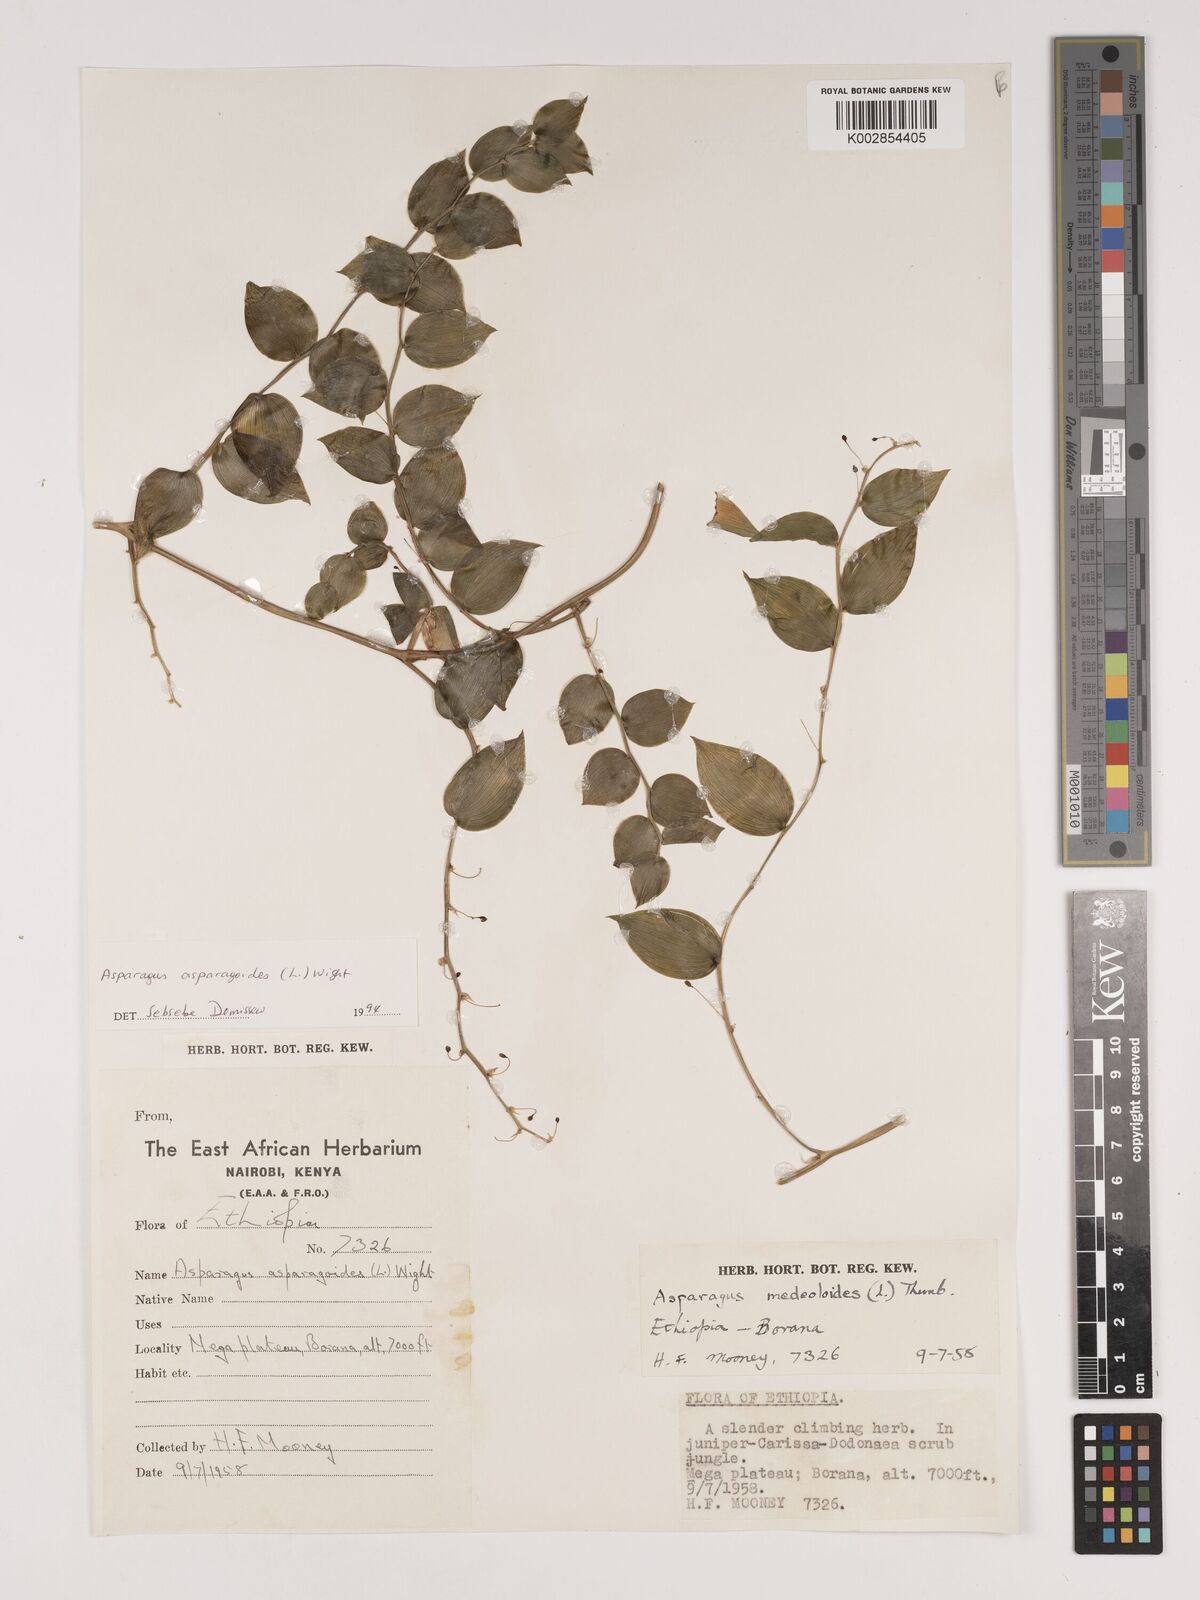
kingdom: Plantae
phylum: Tracheophyta
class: Liliopsida
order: Asparagales
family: Asparagaceae
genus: Asparagus
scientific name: Asparagus asparagoides
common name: African asparagus fern
